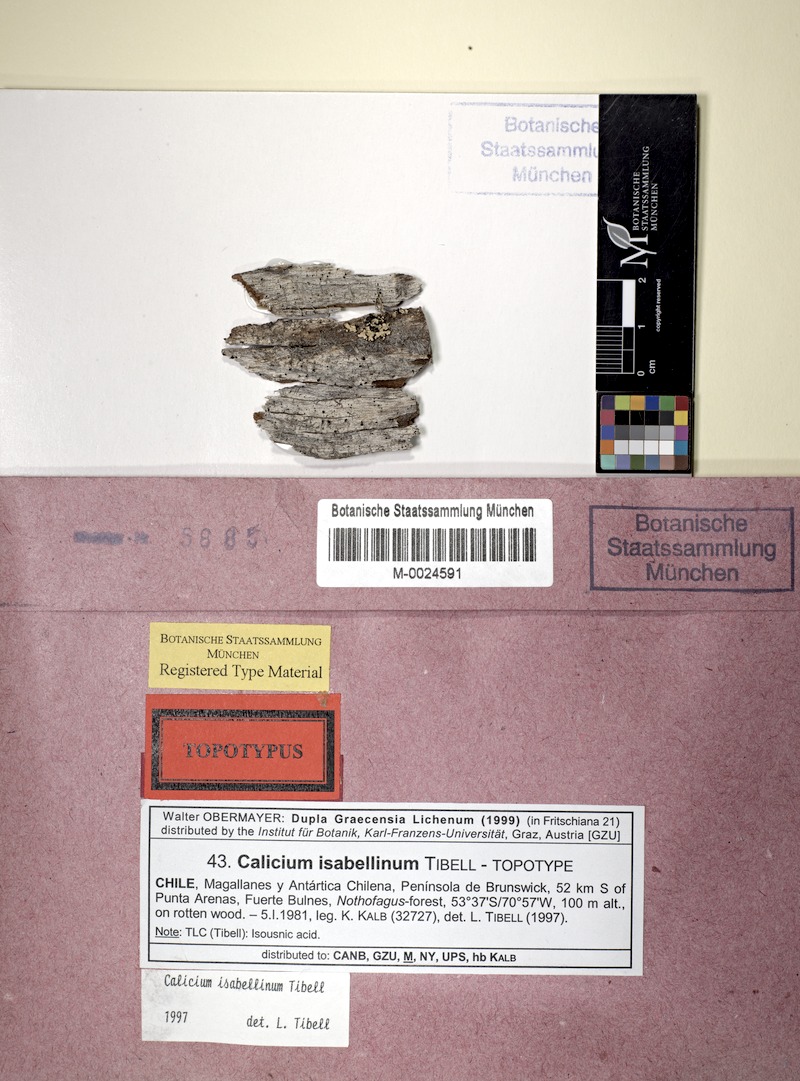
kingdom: Fungi
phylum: Ascomycota
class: Lecanoromycetes
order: Caliciales
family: Caliciaceae
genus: Calicium
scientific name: Calicium
